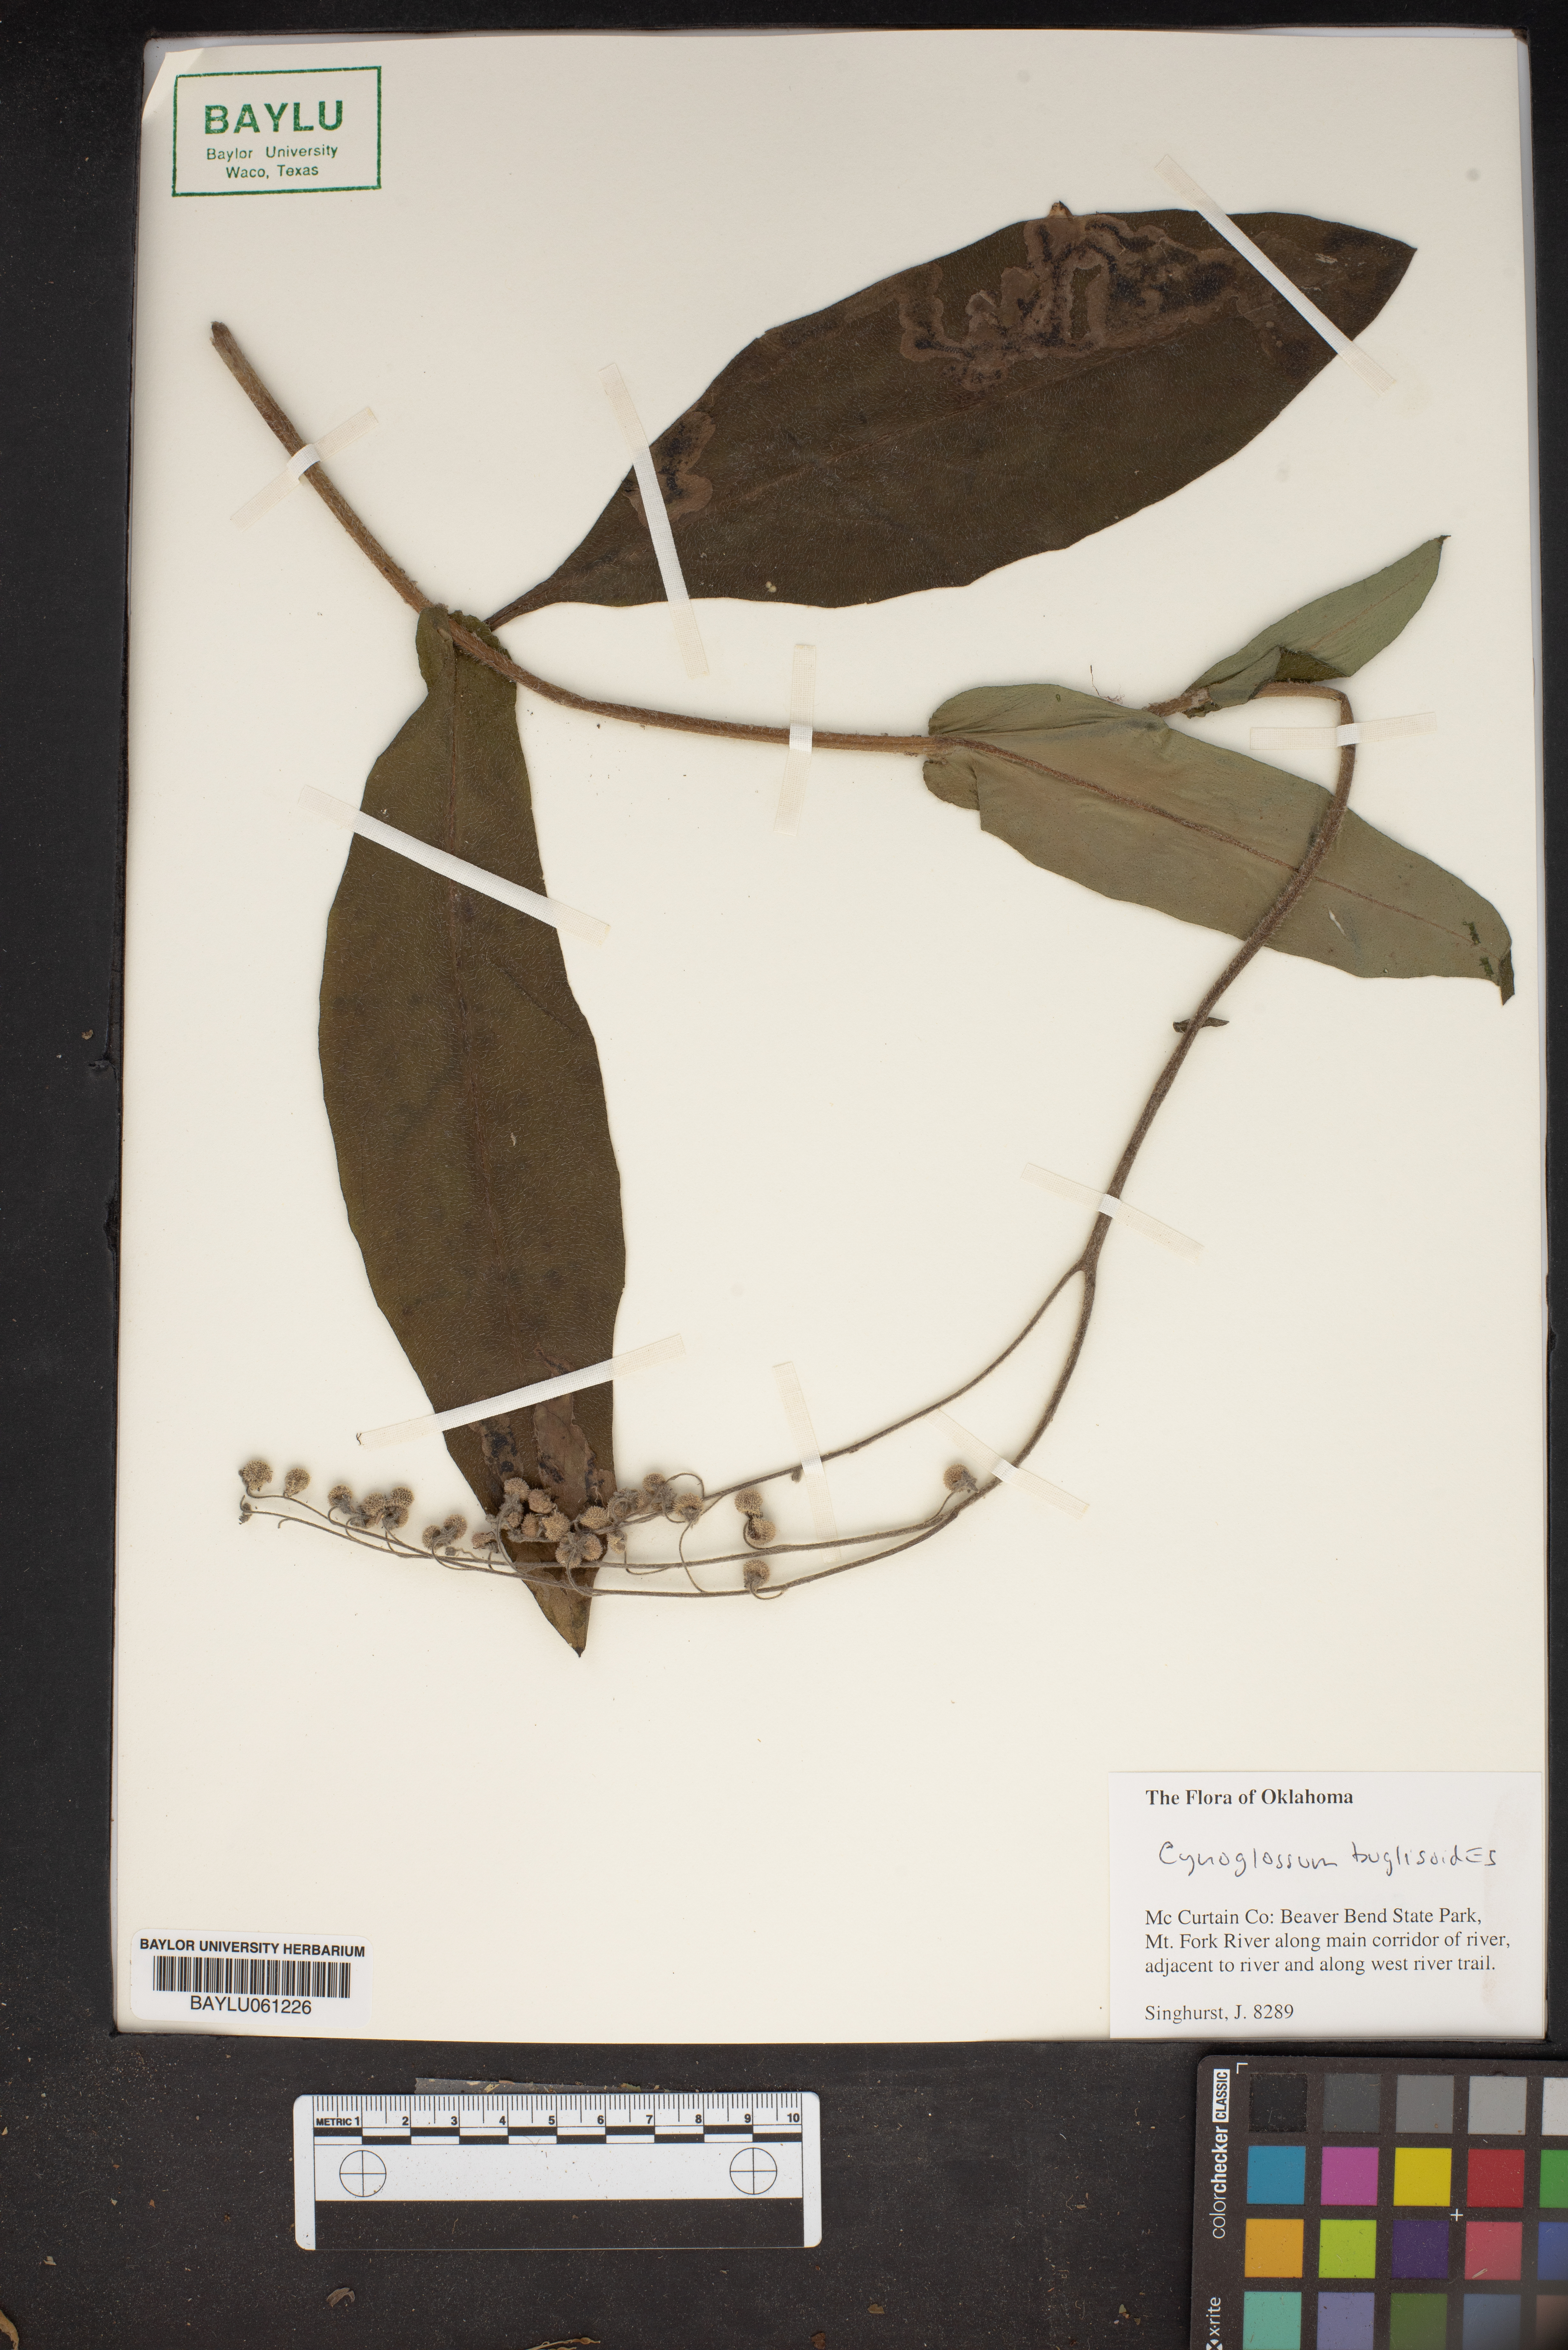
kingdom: Plantae
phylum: Tracheophyta
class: Magnoliopsida
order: Boraginales
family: Boraginaceae
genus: Cynoglossum
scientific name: Cynoglossum
